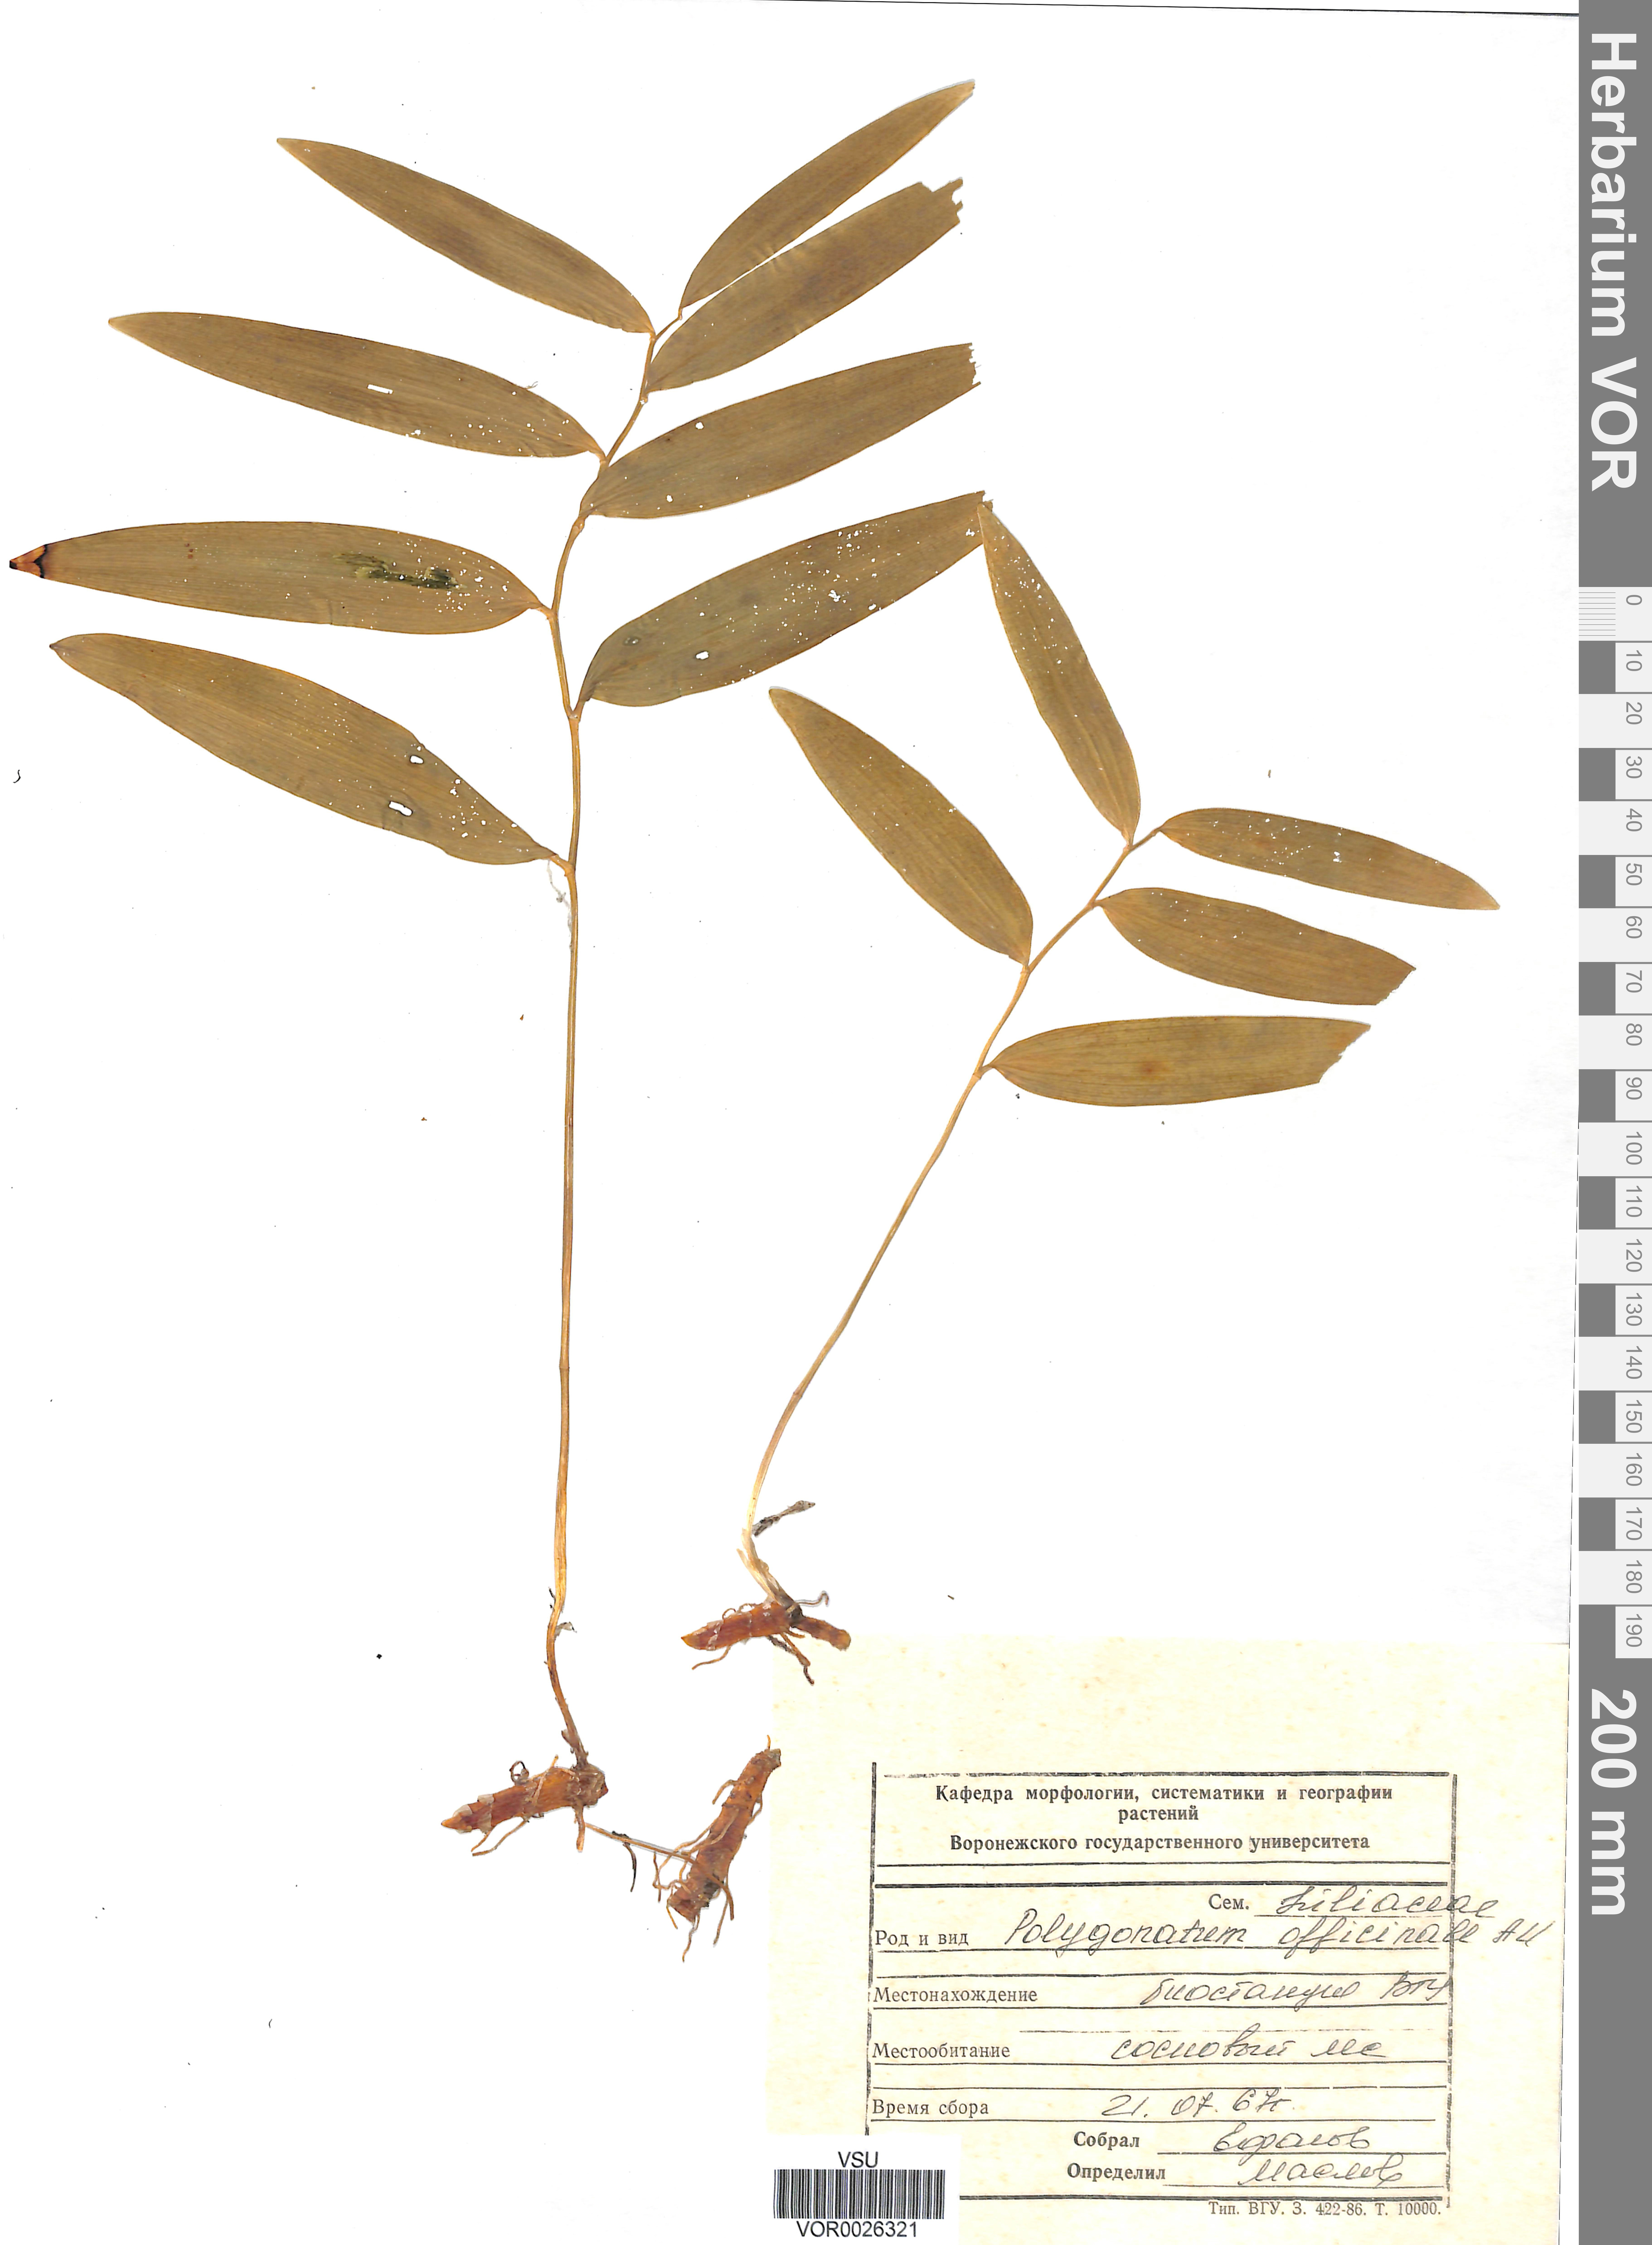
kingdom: Plantae
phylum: Tracheophyta
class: Liliopsida
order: Asparagales
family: Asparagaceae
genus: Polygonatum
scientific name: Polygonatum odoratum
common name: Angular solomon's-seal
